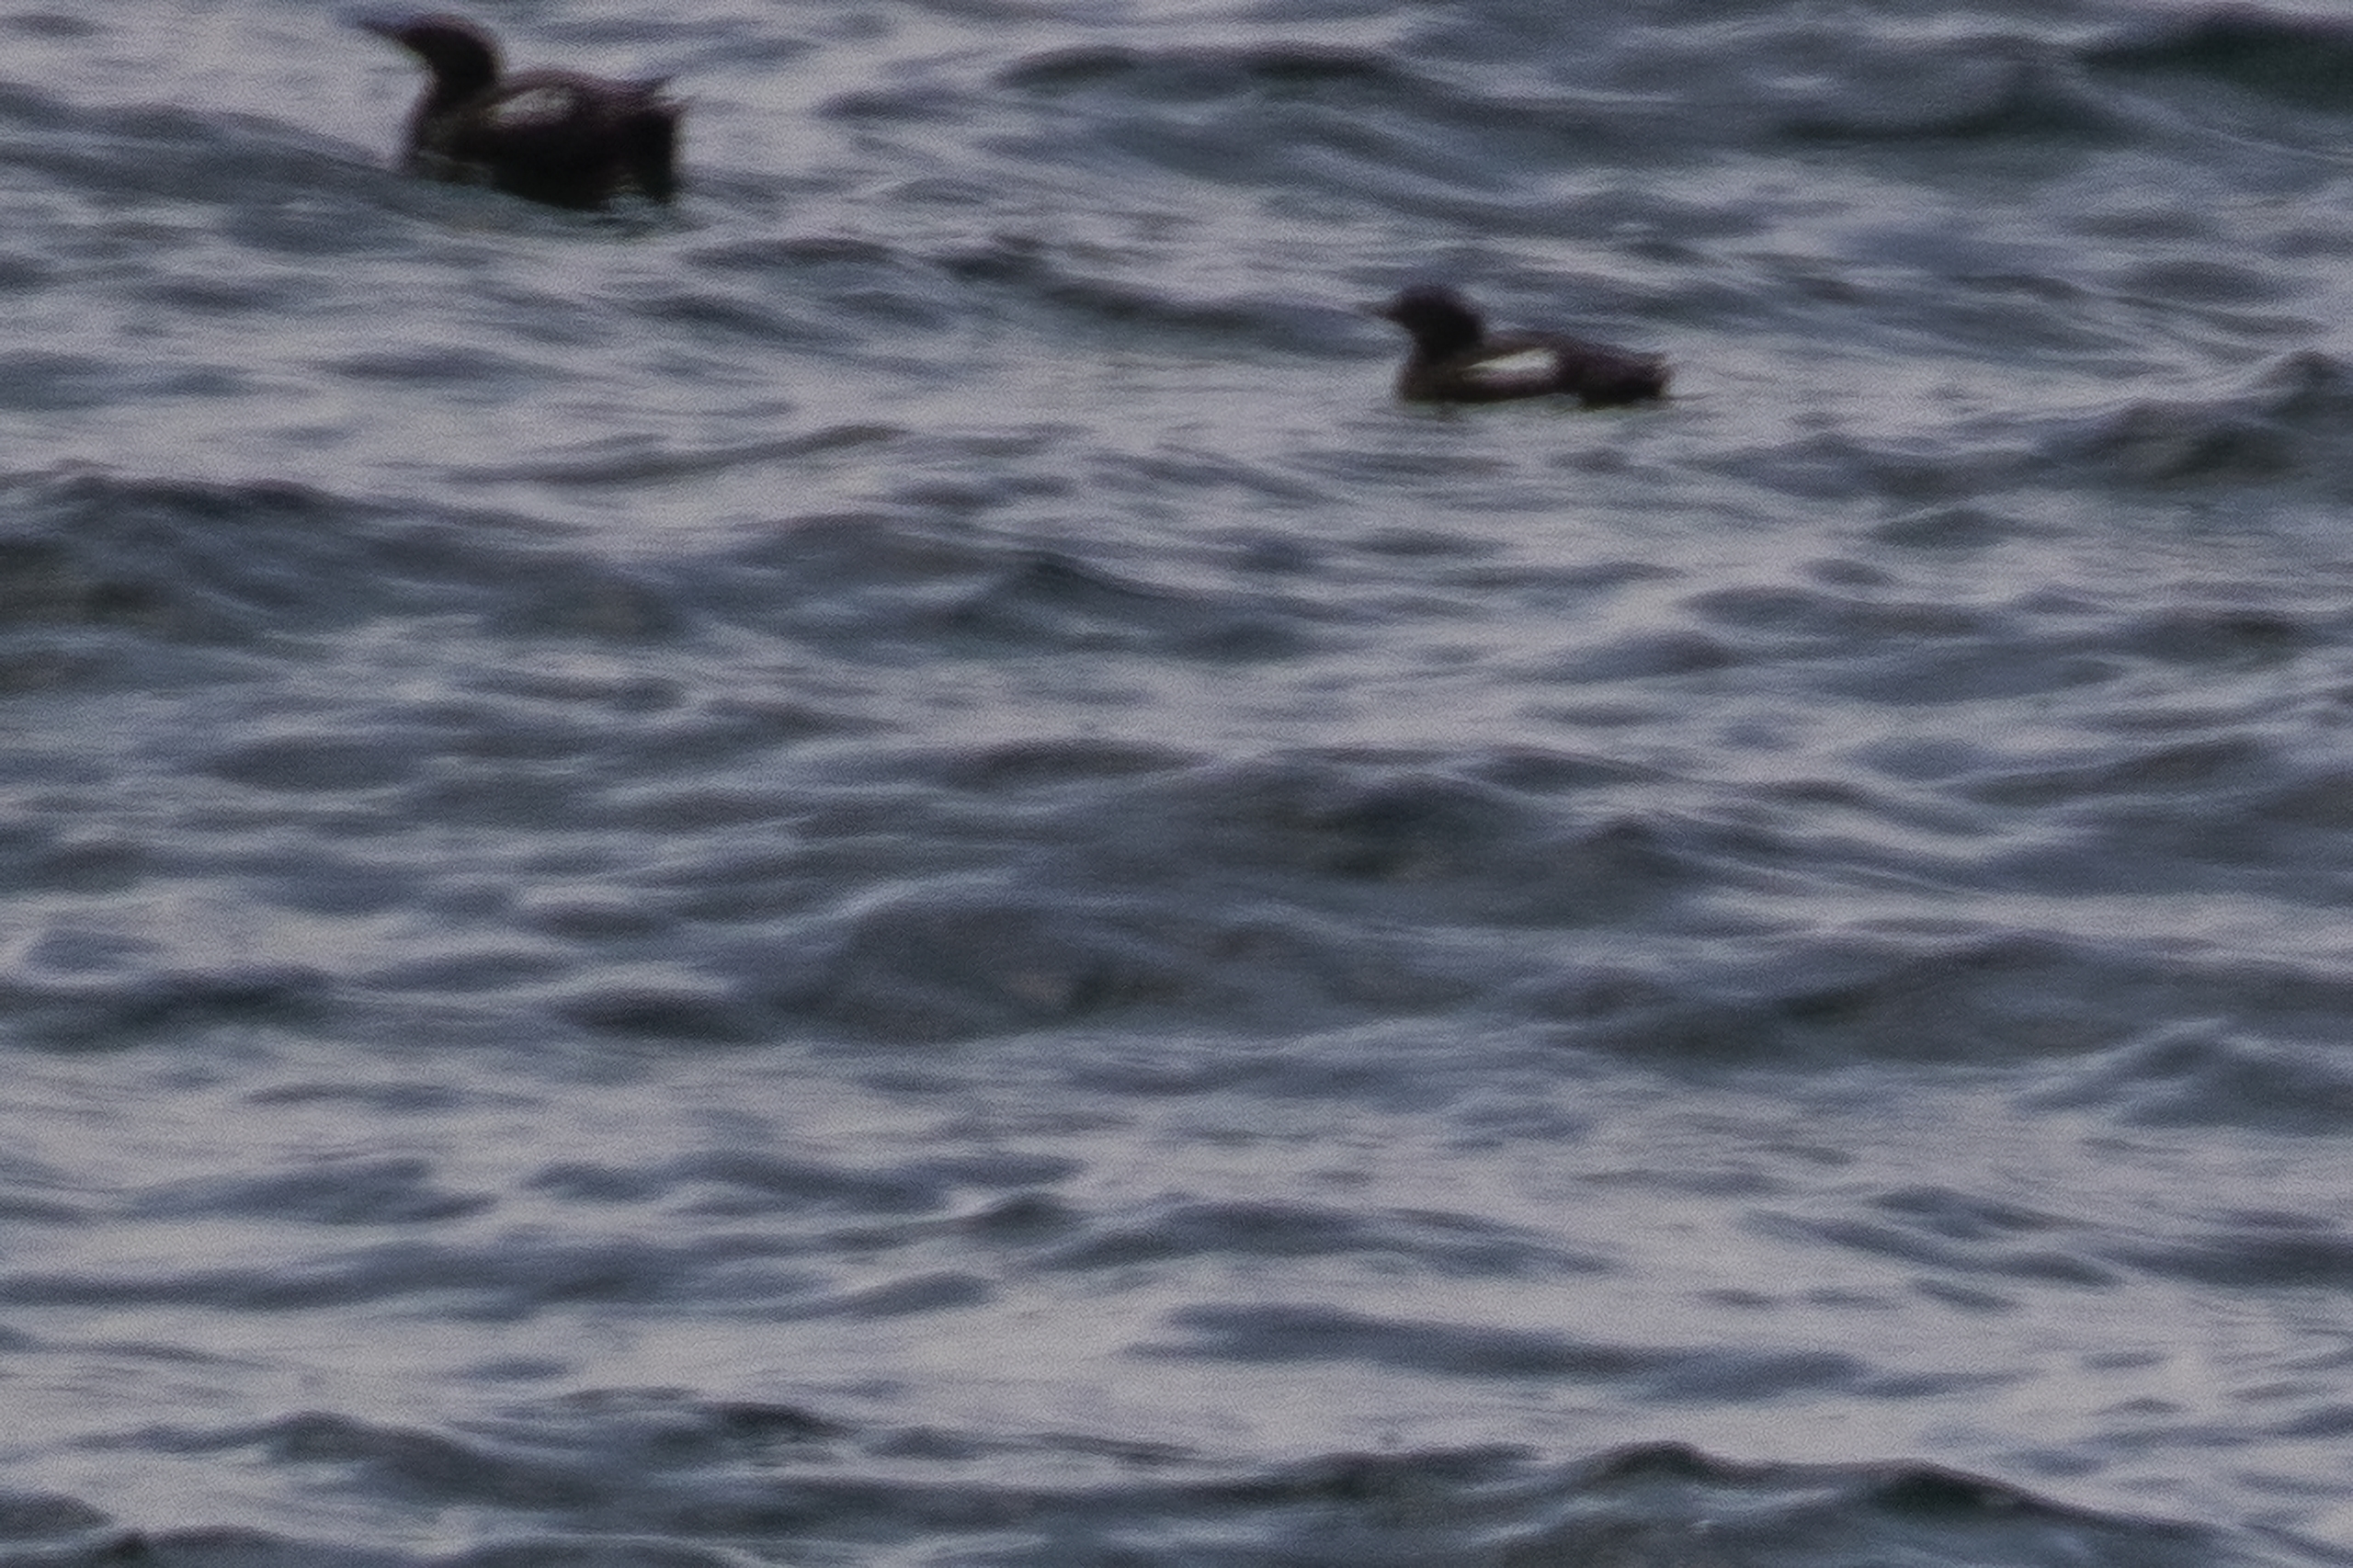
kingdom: Animalia
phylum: Chordata
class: Aves
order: Charadriiformes
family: Alcidae
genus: Cepphus
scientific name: Cepphus grylle
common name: Tejst
